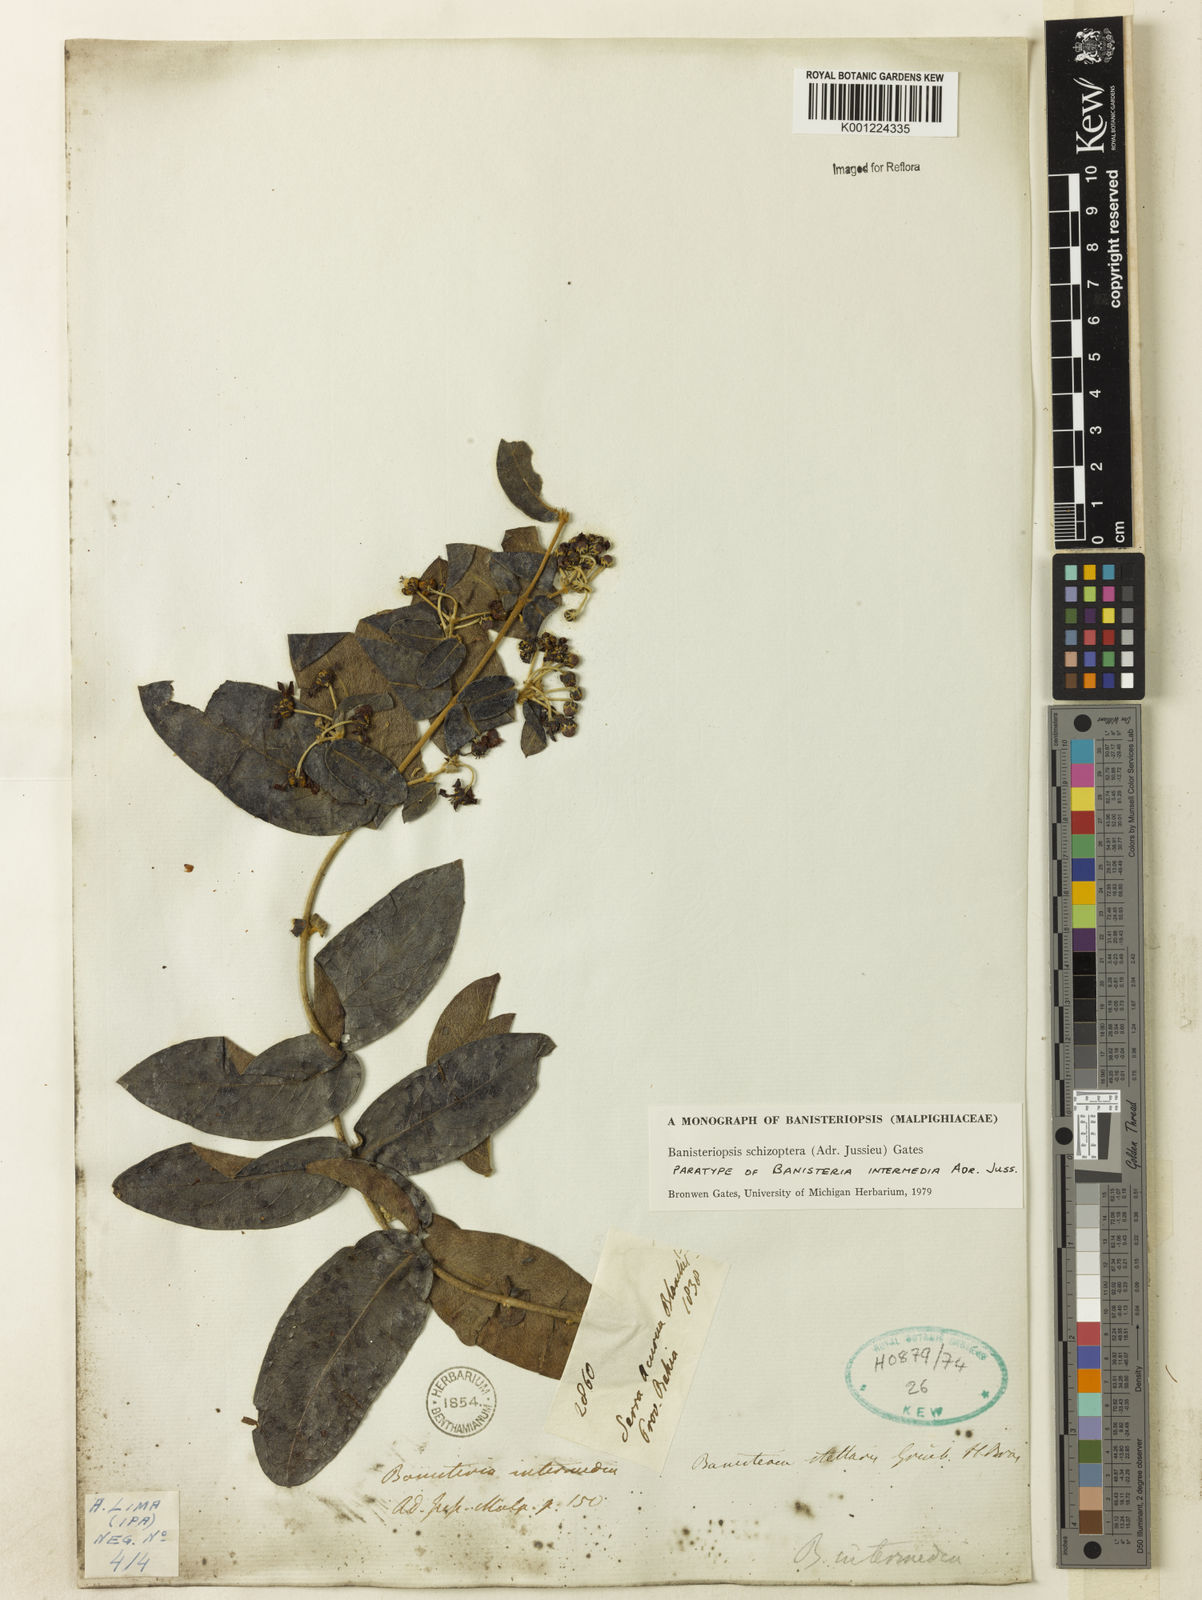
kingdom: Plantae
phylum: Tracheophyta
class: Magnoliopsida
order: Malpighiales
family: Malpighiaceae
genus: Banisteriopsis
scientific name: Banisteriopsis schizoptera
